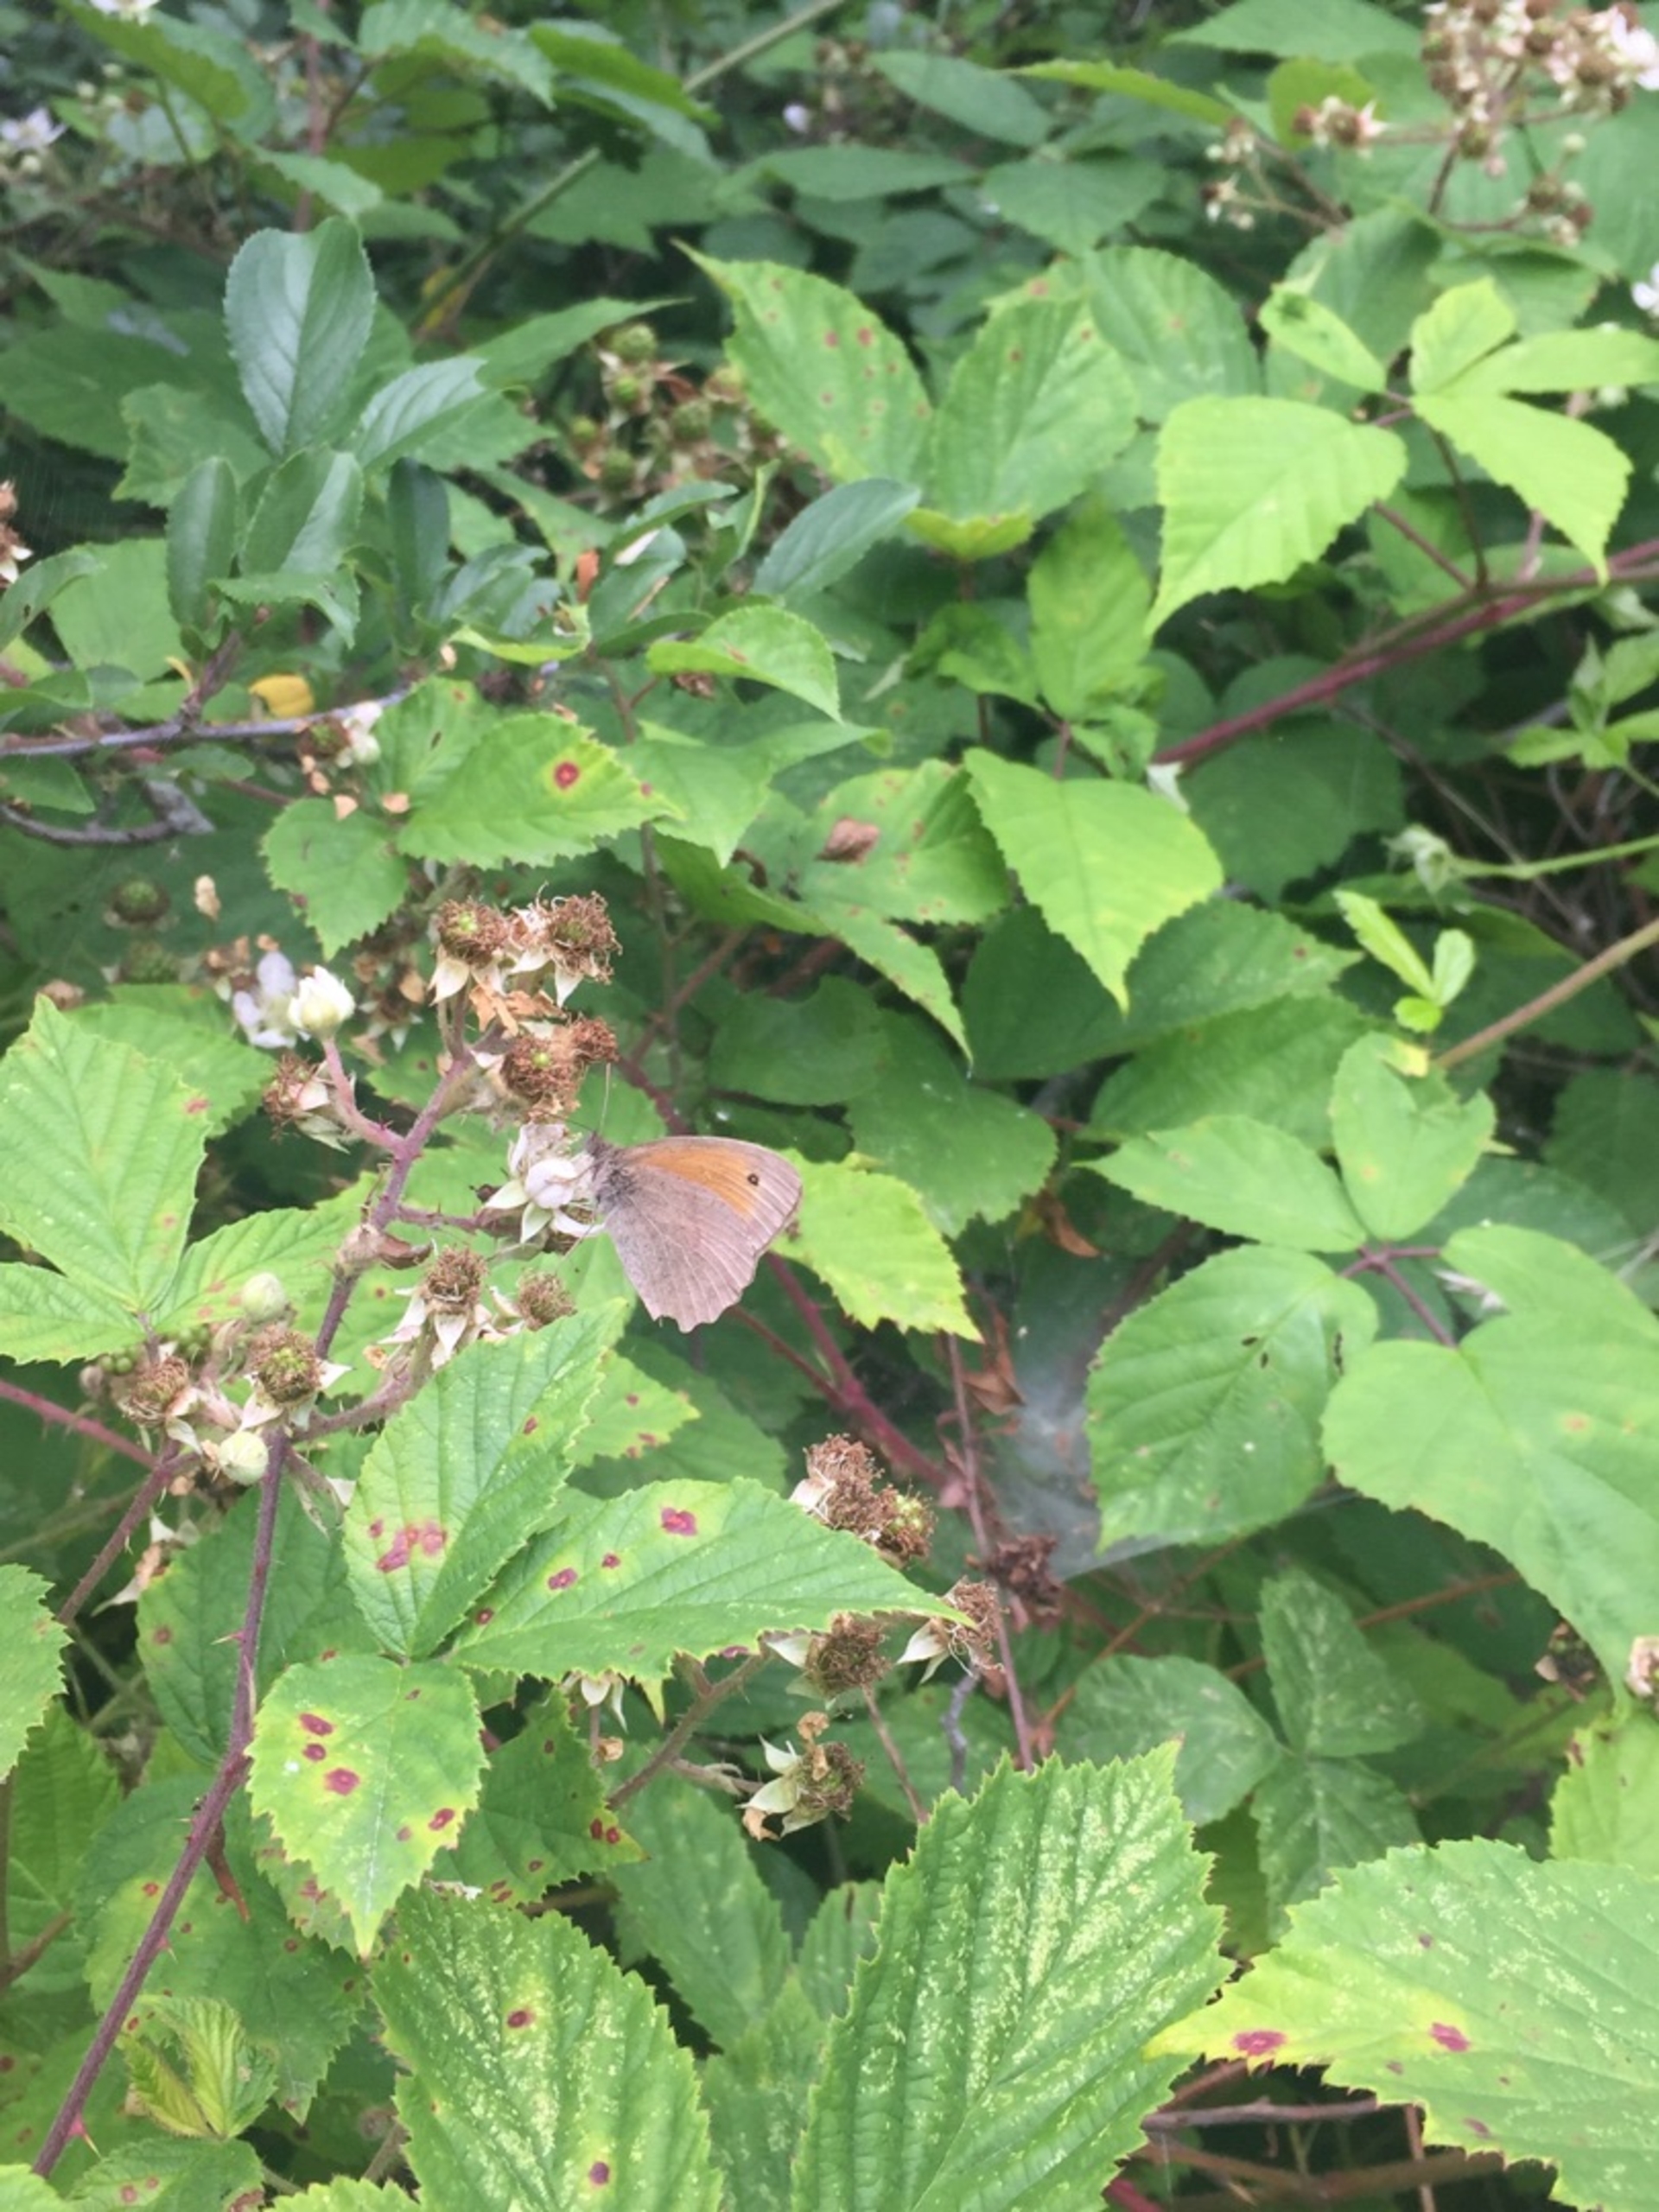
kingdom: Animalia
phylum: Arthropoda
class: Insecta
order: Lepidoptera
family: Nymphalidae
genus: Maniola
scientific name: Maniola jurtina
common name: Græsrandøje
